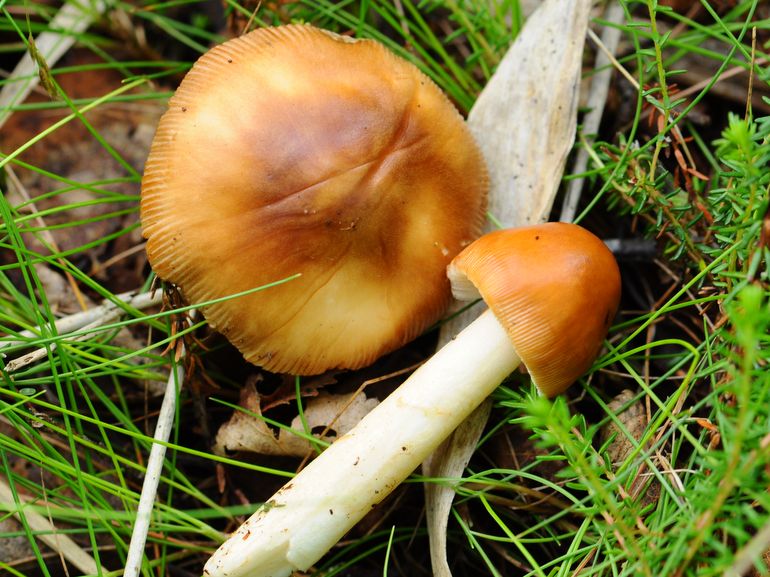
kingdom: Fungi
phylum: Basidiomycota
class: Agaricomycetes
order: Agaricales
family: Amanitaceae
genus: Amanita
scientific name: Amanita fulva
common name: brun kam-fluesvamp
